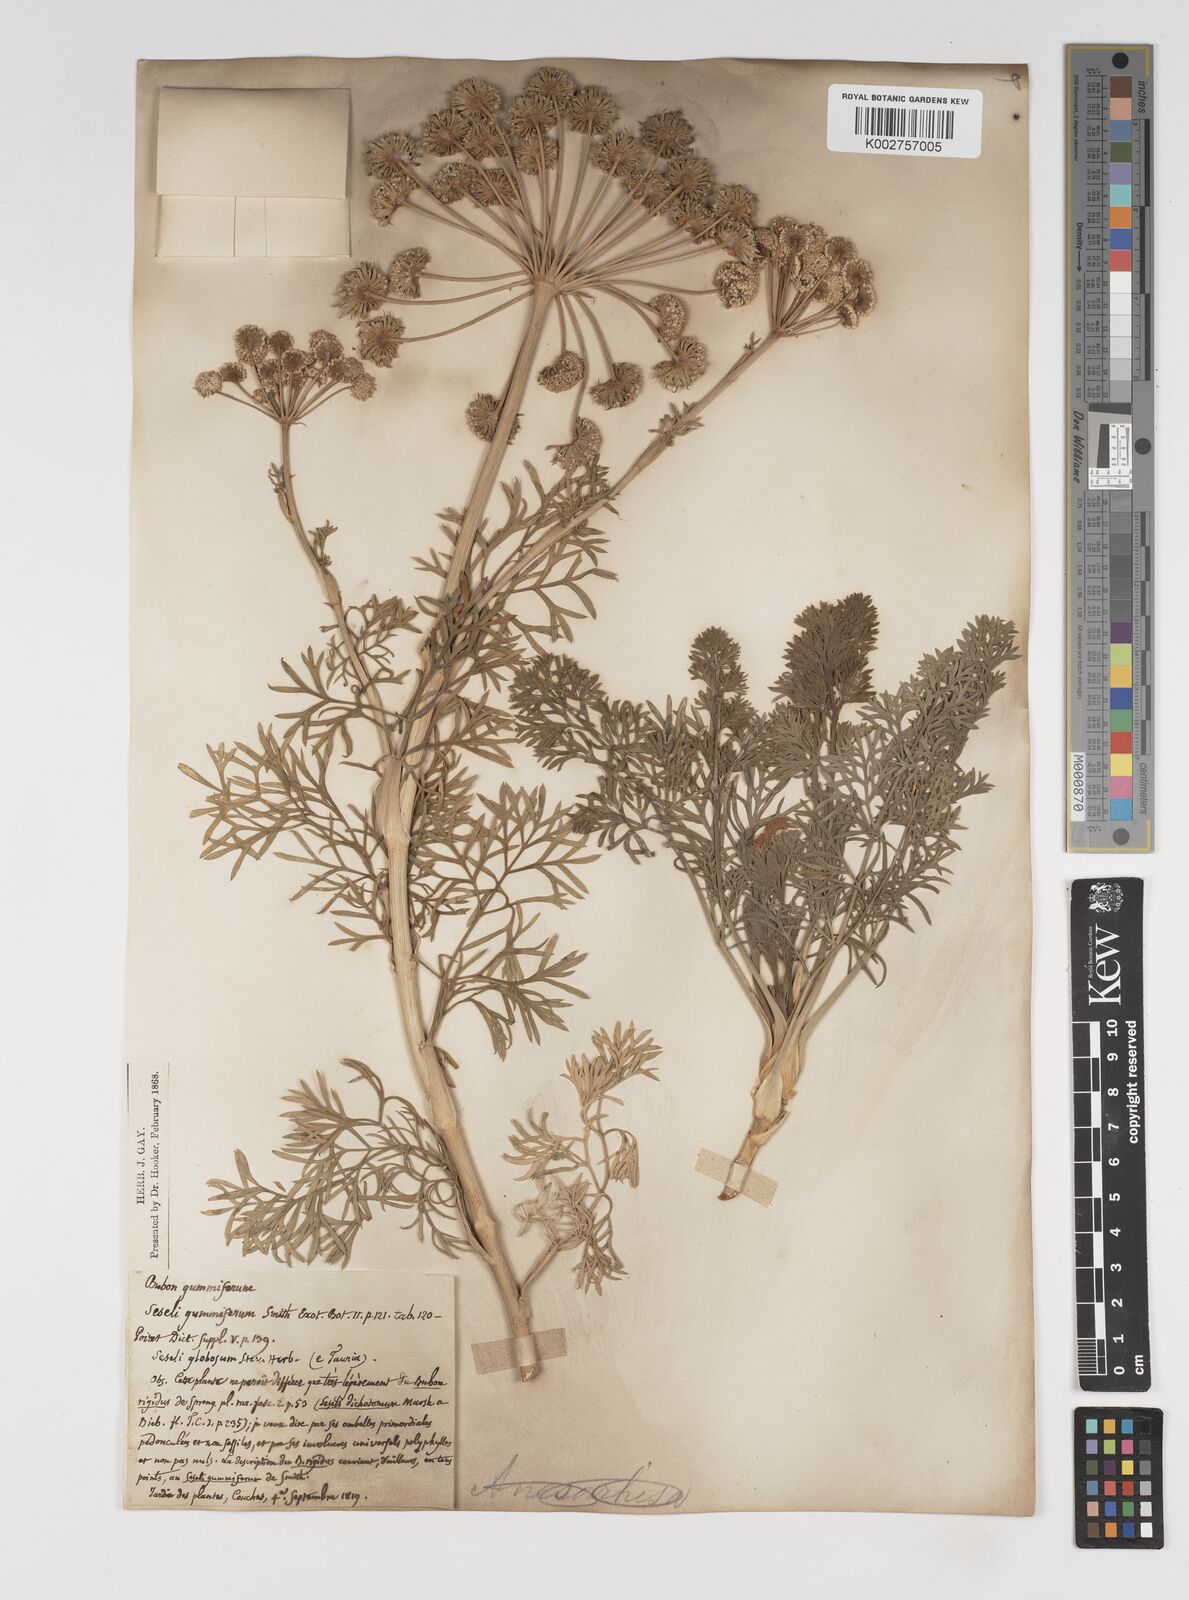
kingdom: Plantae
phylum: Tracheophyta
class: Magnoliopsida
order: Apiales
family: Apiaceae
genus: Seseli
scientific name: Seseli gummiferum
